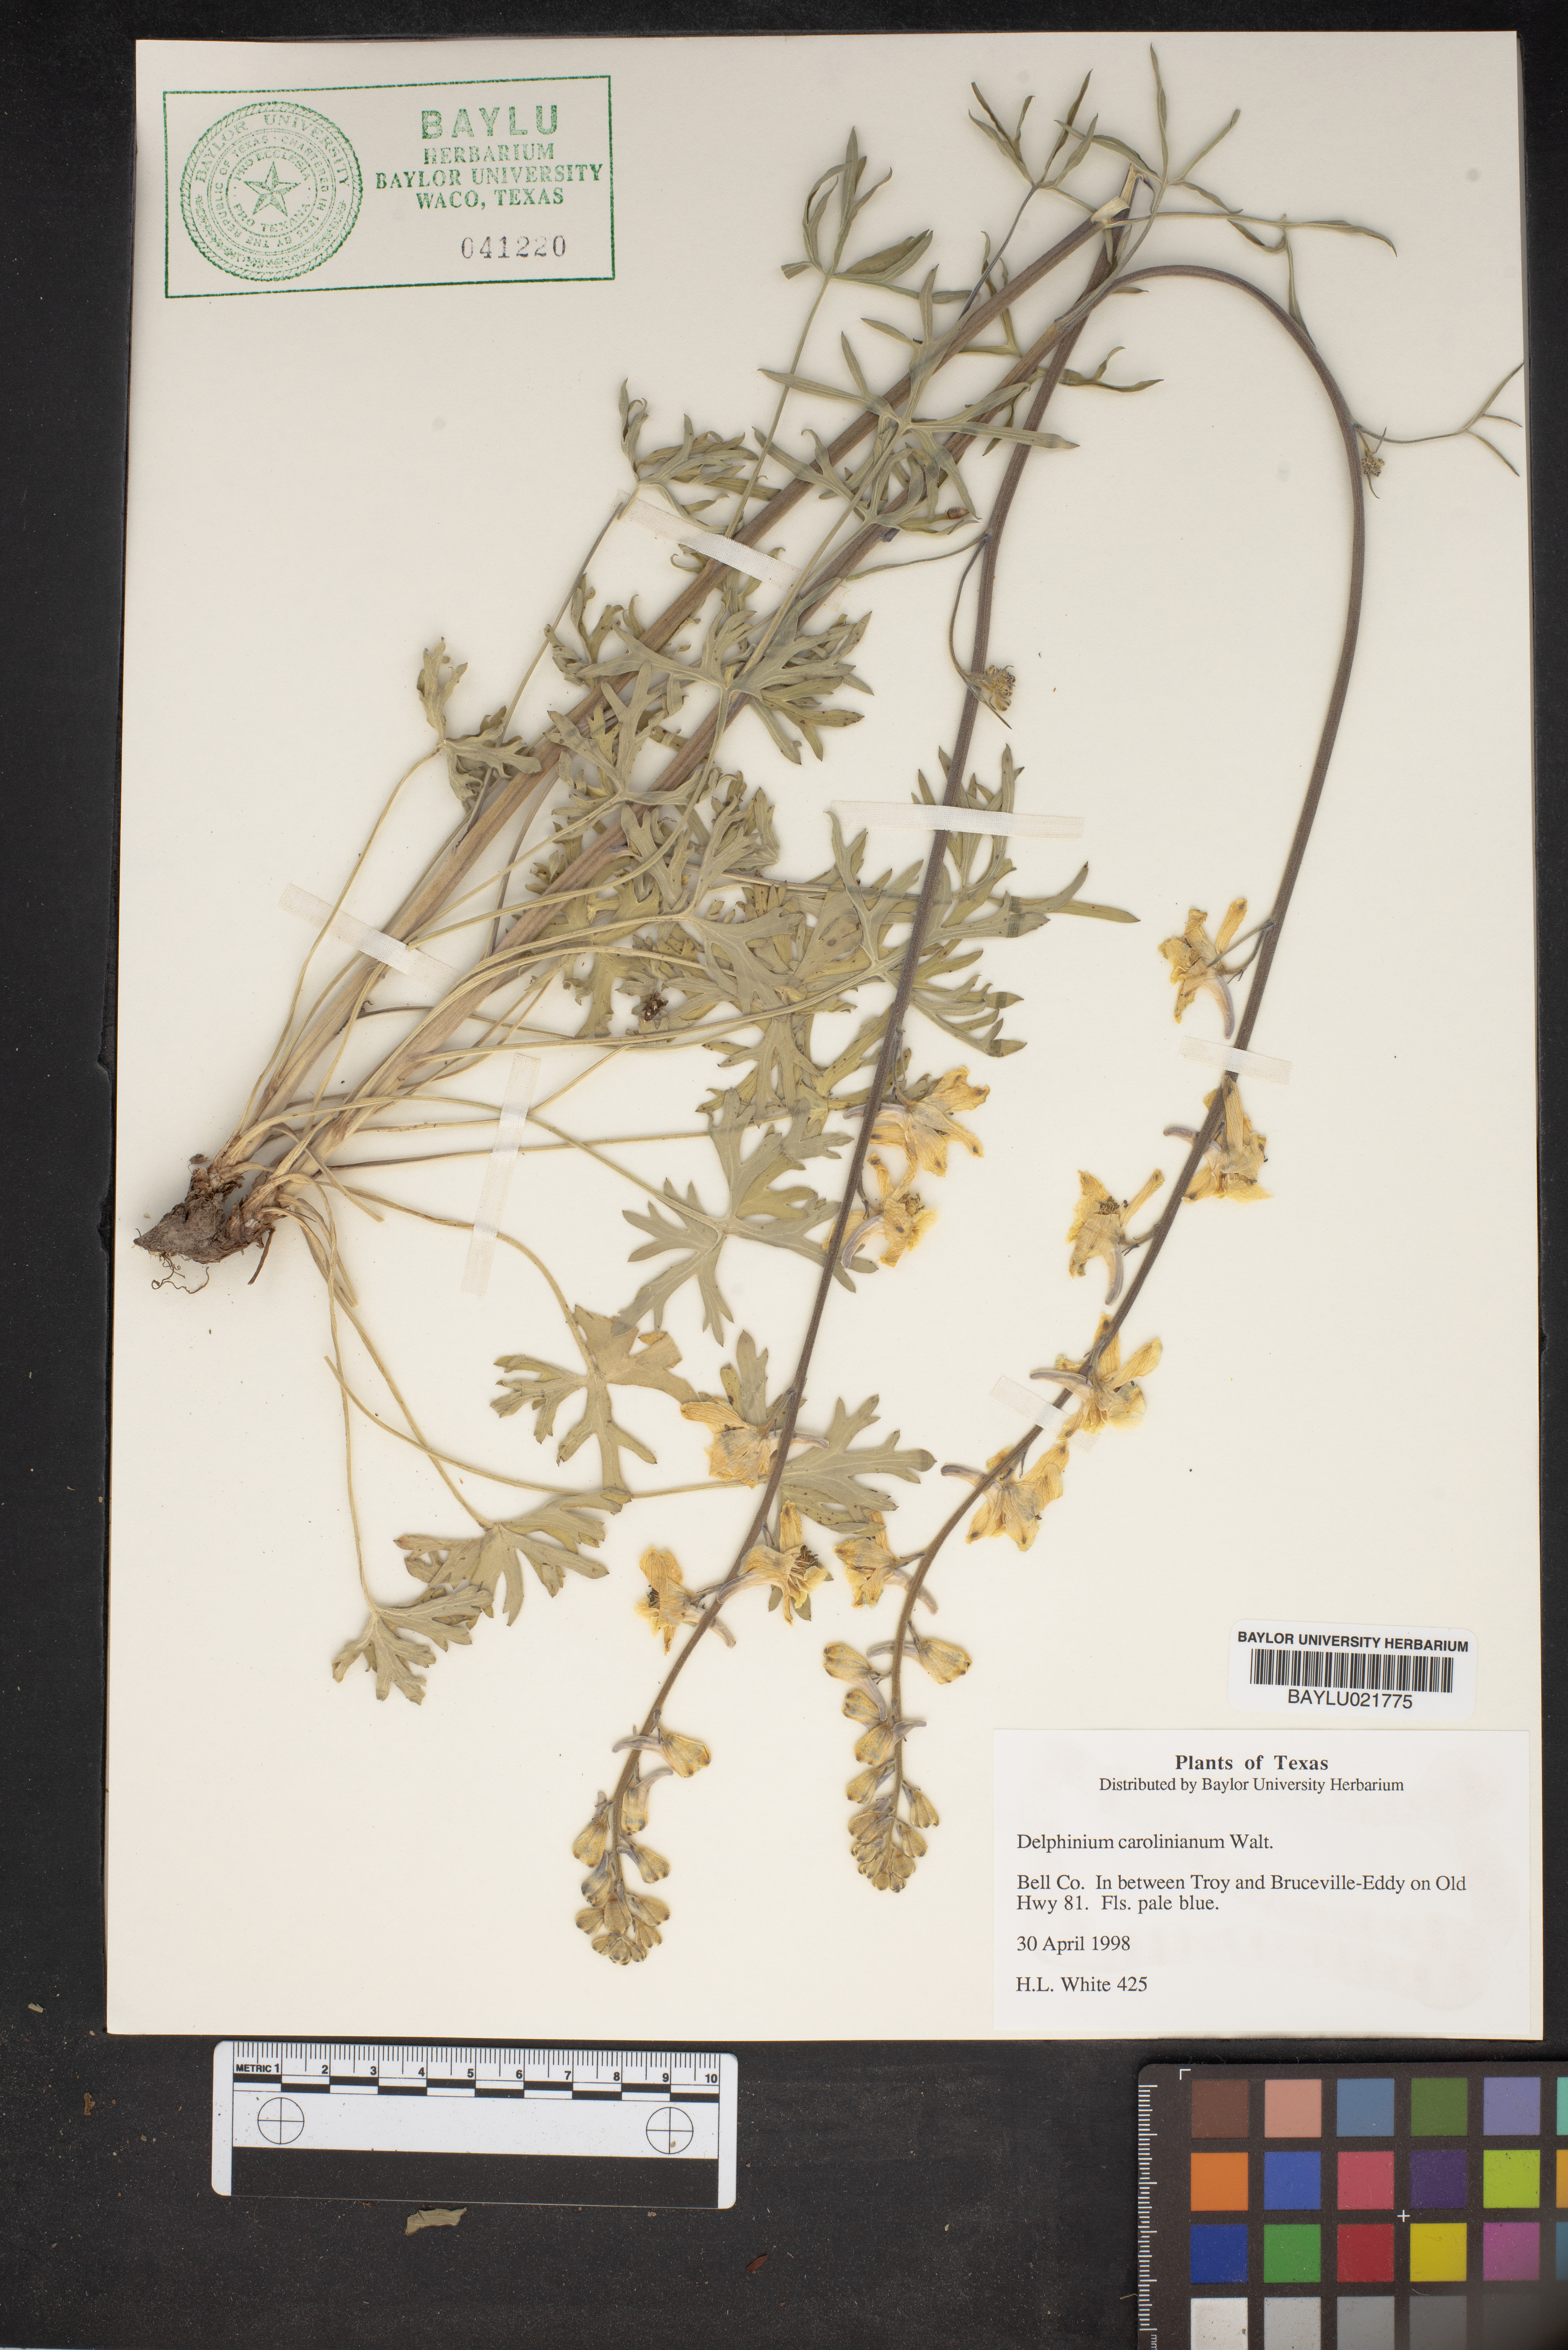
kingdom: Plantae
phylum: Tracheophyta
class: Magnoliopsida
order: Ranunculales
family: Ranunculaceae
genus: Delphinium
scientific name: Delphinium carolinianum
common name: Carolina larkspur
